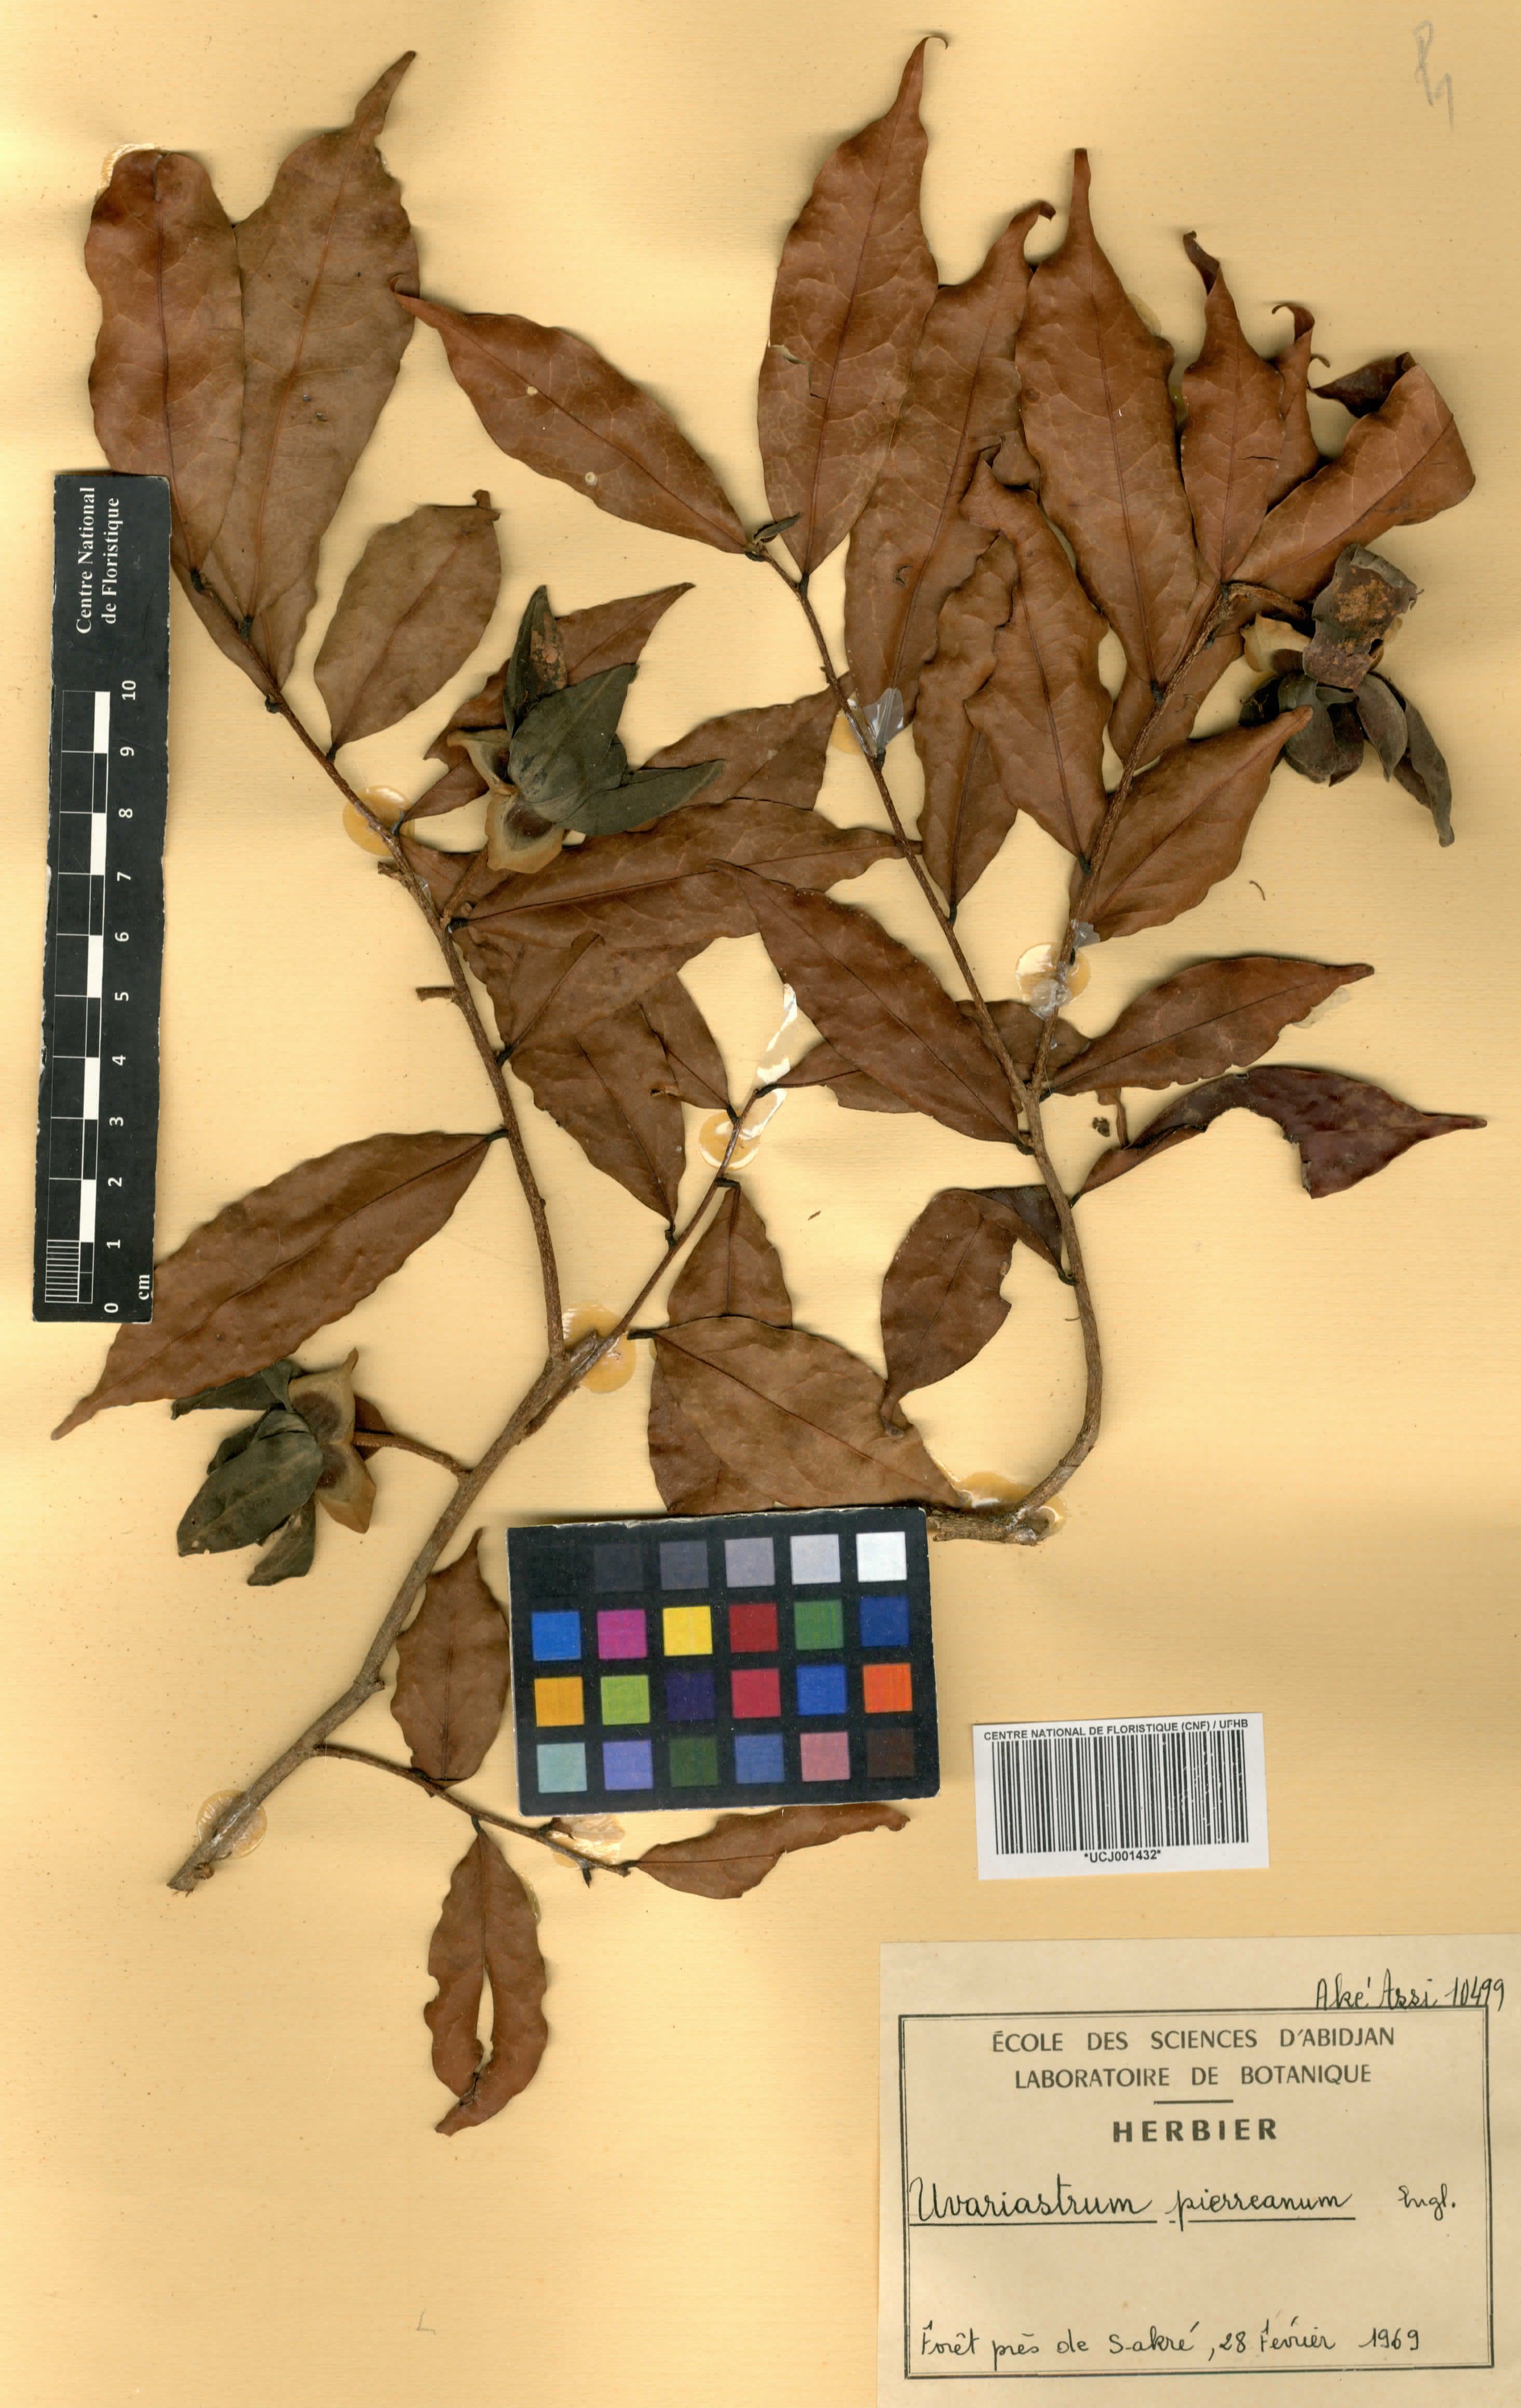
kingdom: Plantae
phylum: Tracheophyta
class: Magnoliopsida
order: Magnoliales
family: Annonaceae
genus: Uvariastrum
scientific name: Uvariastrum pierreanum
